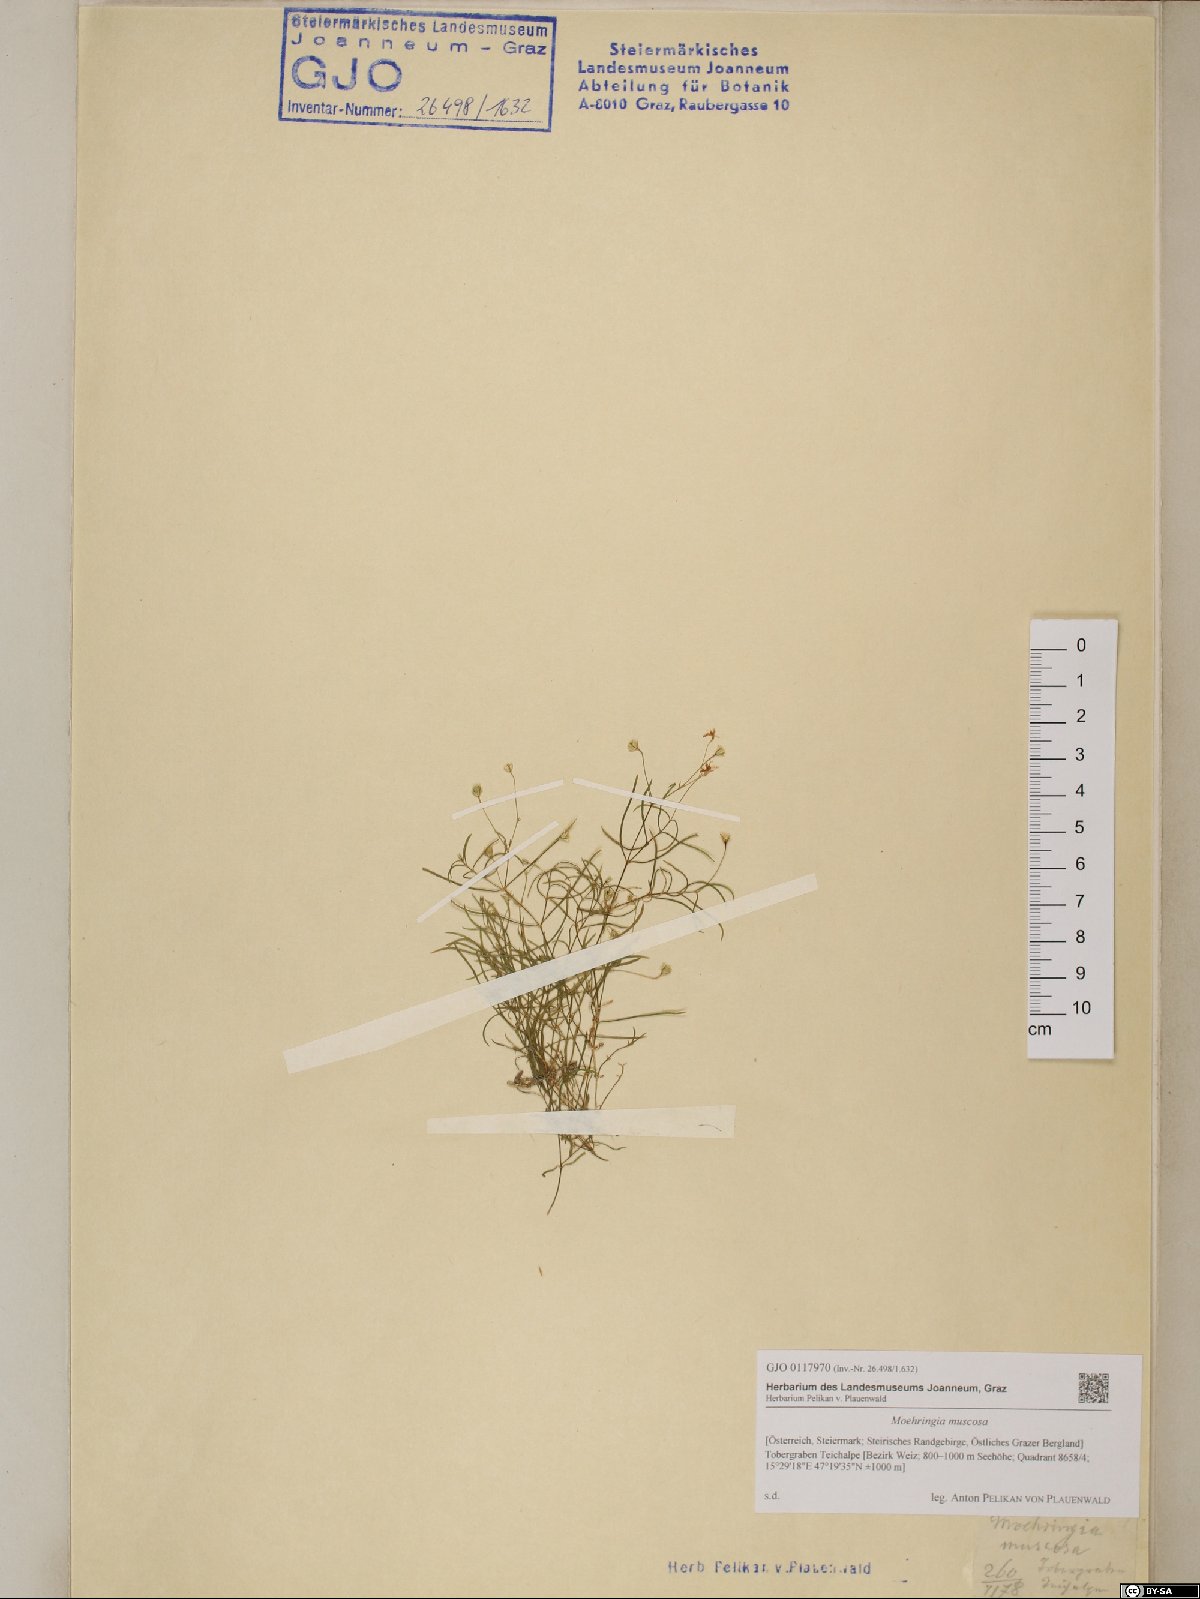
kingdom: Plantae
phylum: Tracheophyta
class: Magnoliopsida
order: Caryophyllales
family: Caryophyllaceae
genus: Moehringia
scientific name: Moehringia muscosa
